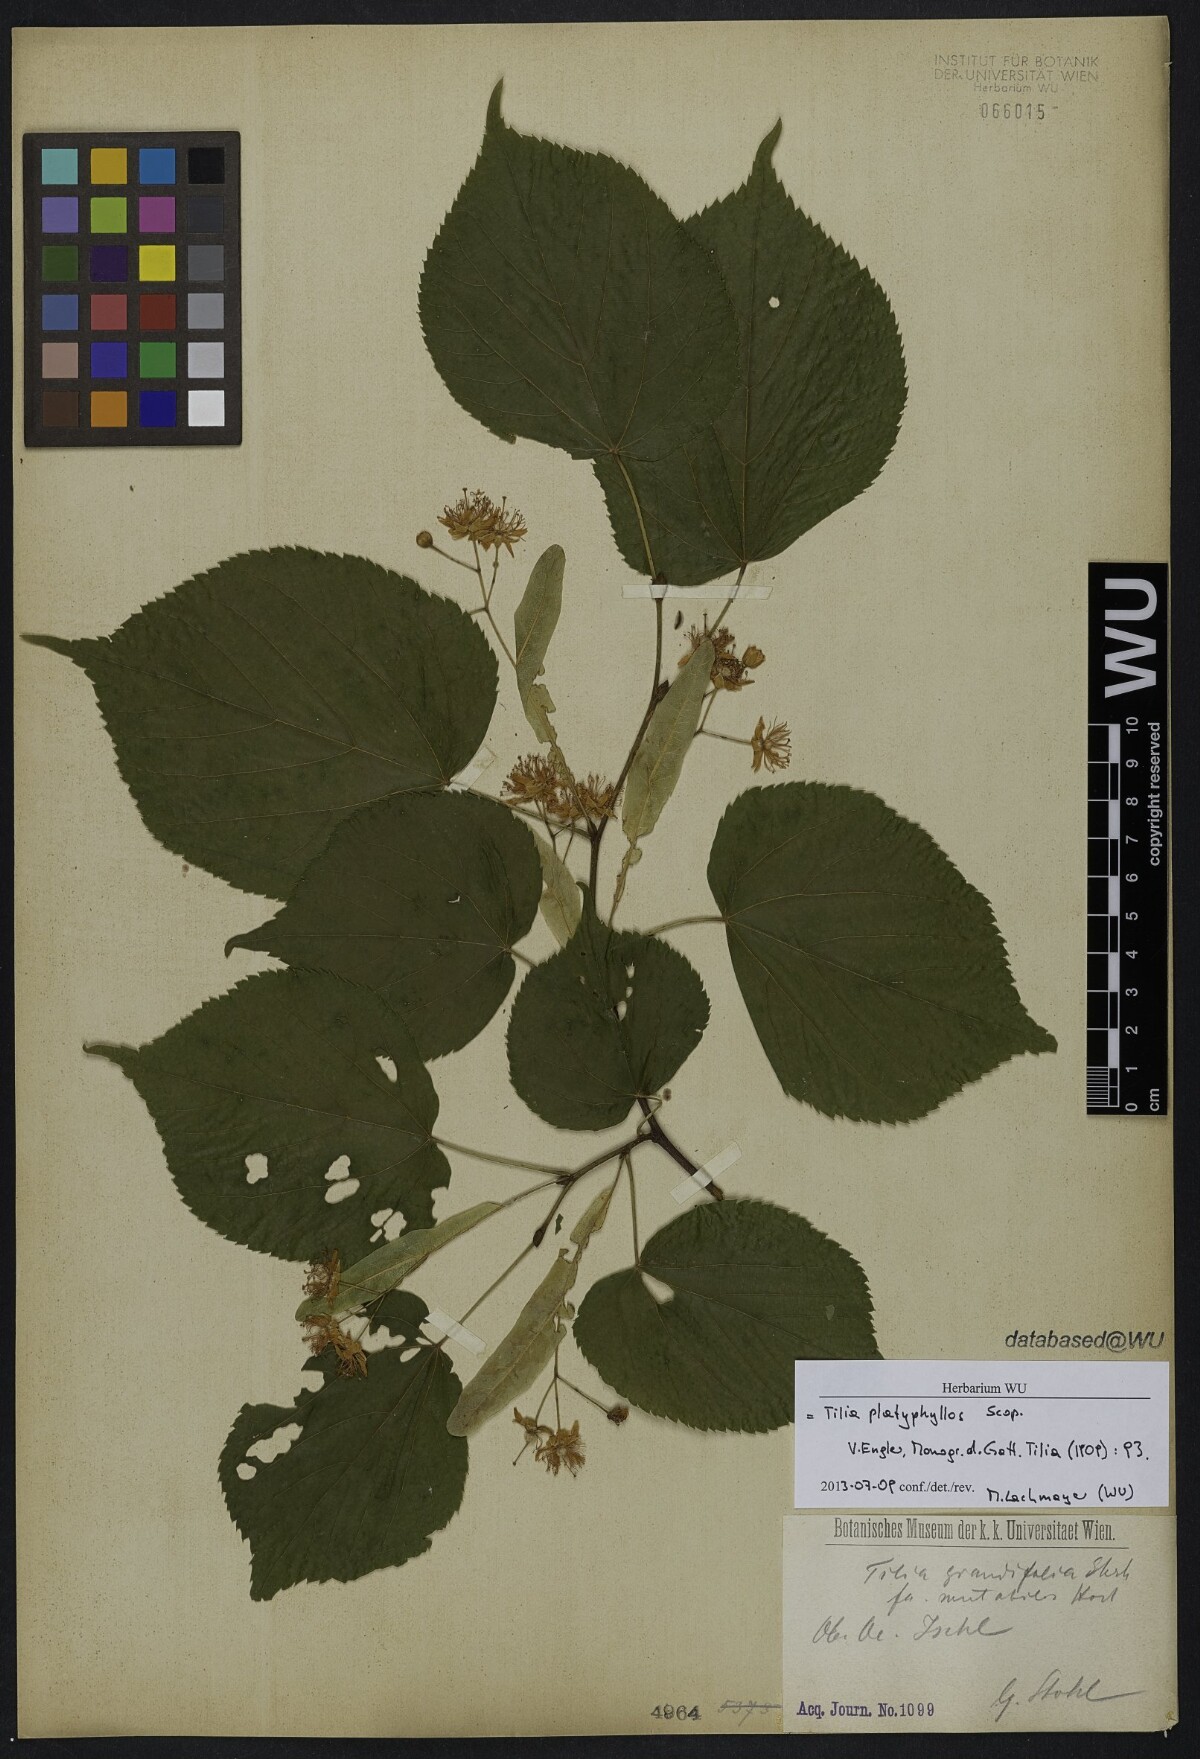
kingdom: Plantae
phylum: Tracheophyta
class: Magnoliopsida
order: Malvales
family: Malvaceae
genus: Tilia
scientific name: Tilia platyphyllos
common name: Large-leaved lime
